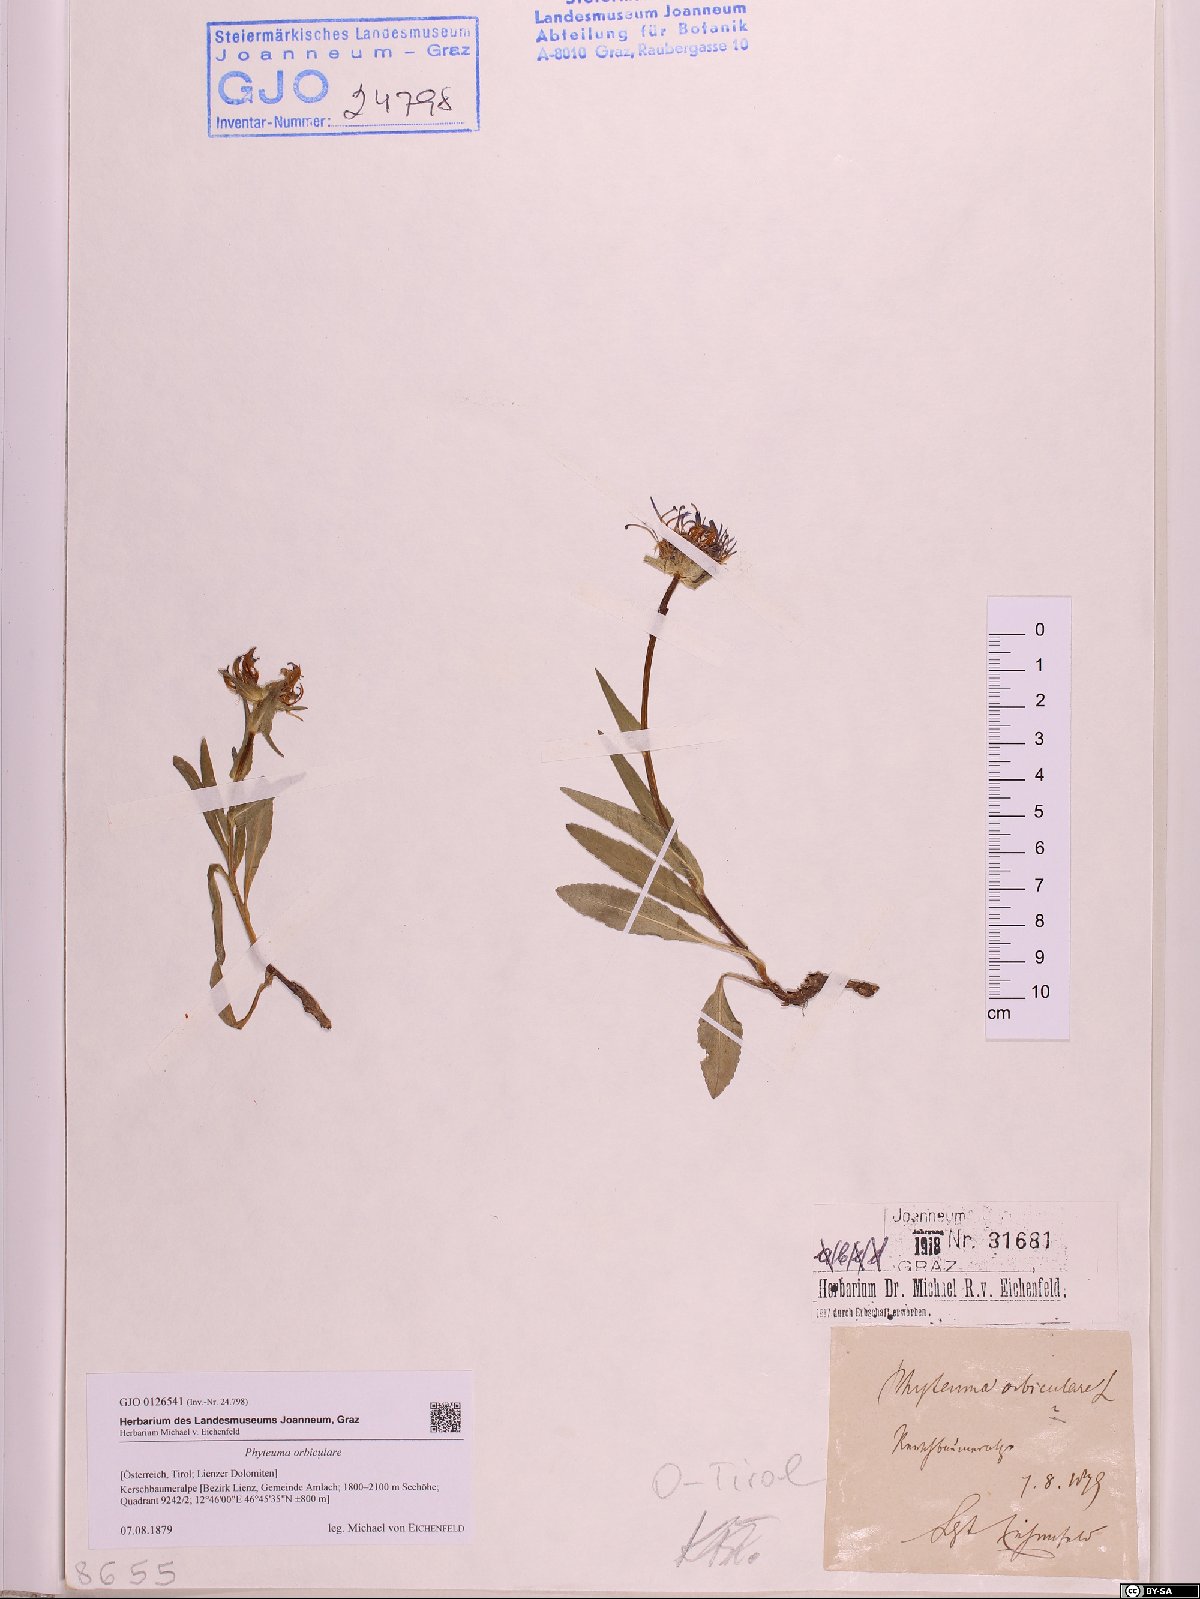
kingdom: Plantae
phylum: Tracheophyta
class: Magnoliopsida
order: Asterales
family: Campanulaceae
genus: Phyteuma
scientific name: Phyteuma orbiculare
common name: Round-headed rampion
